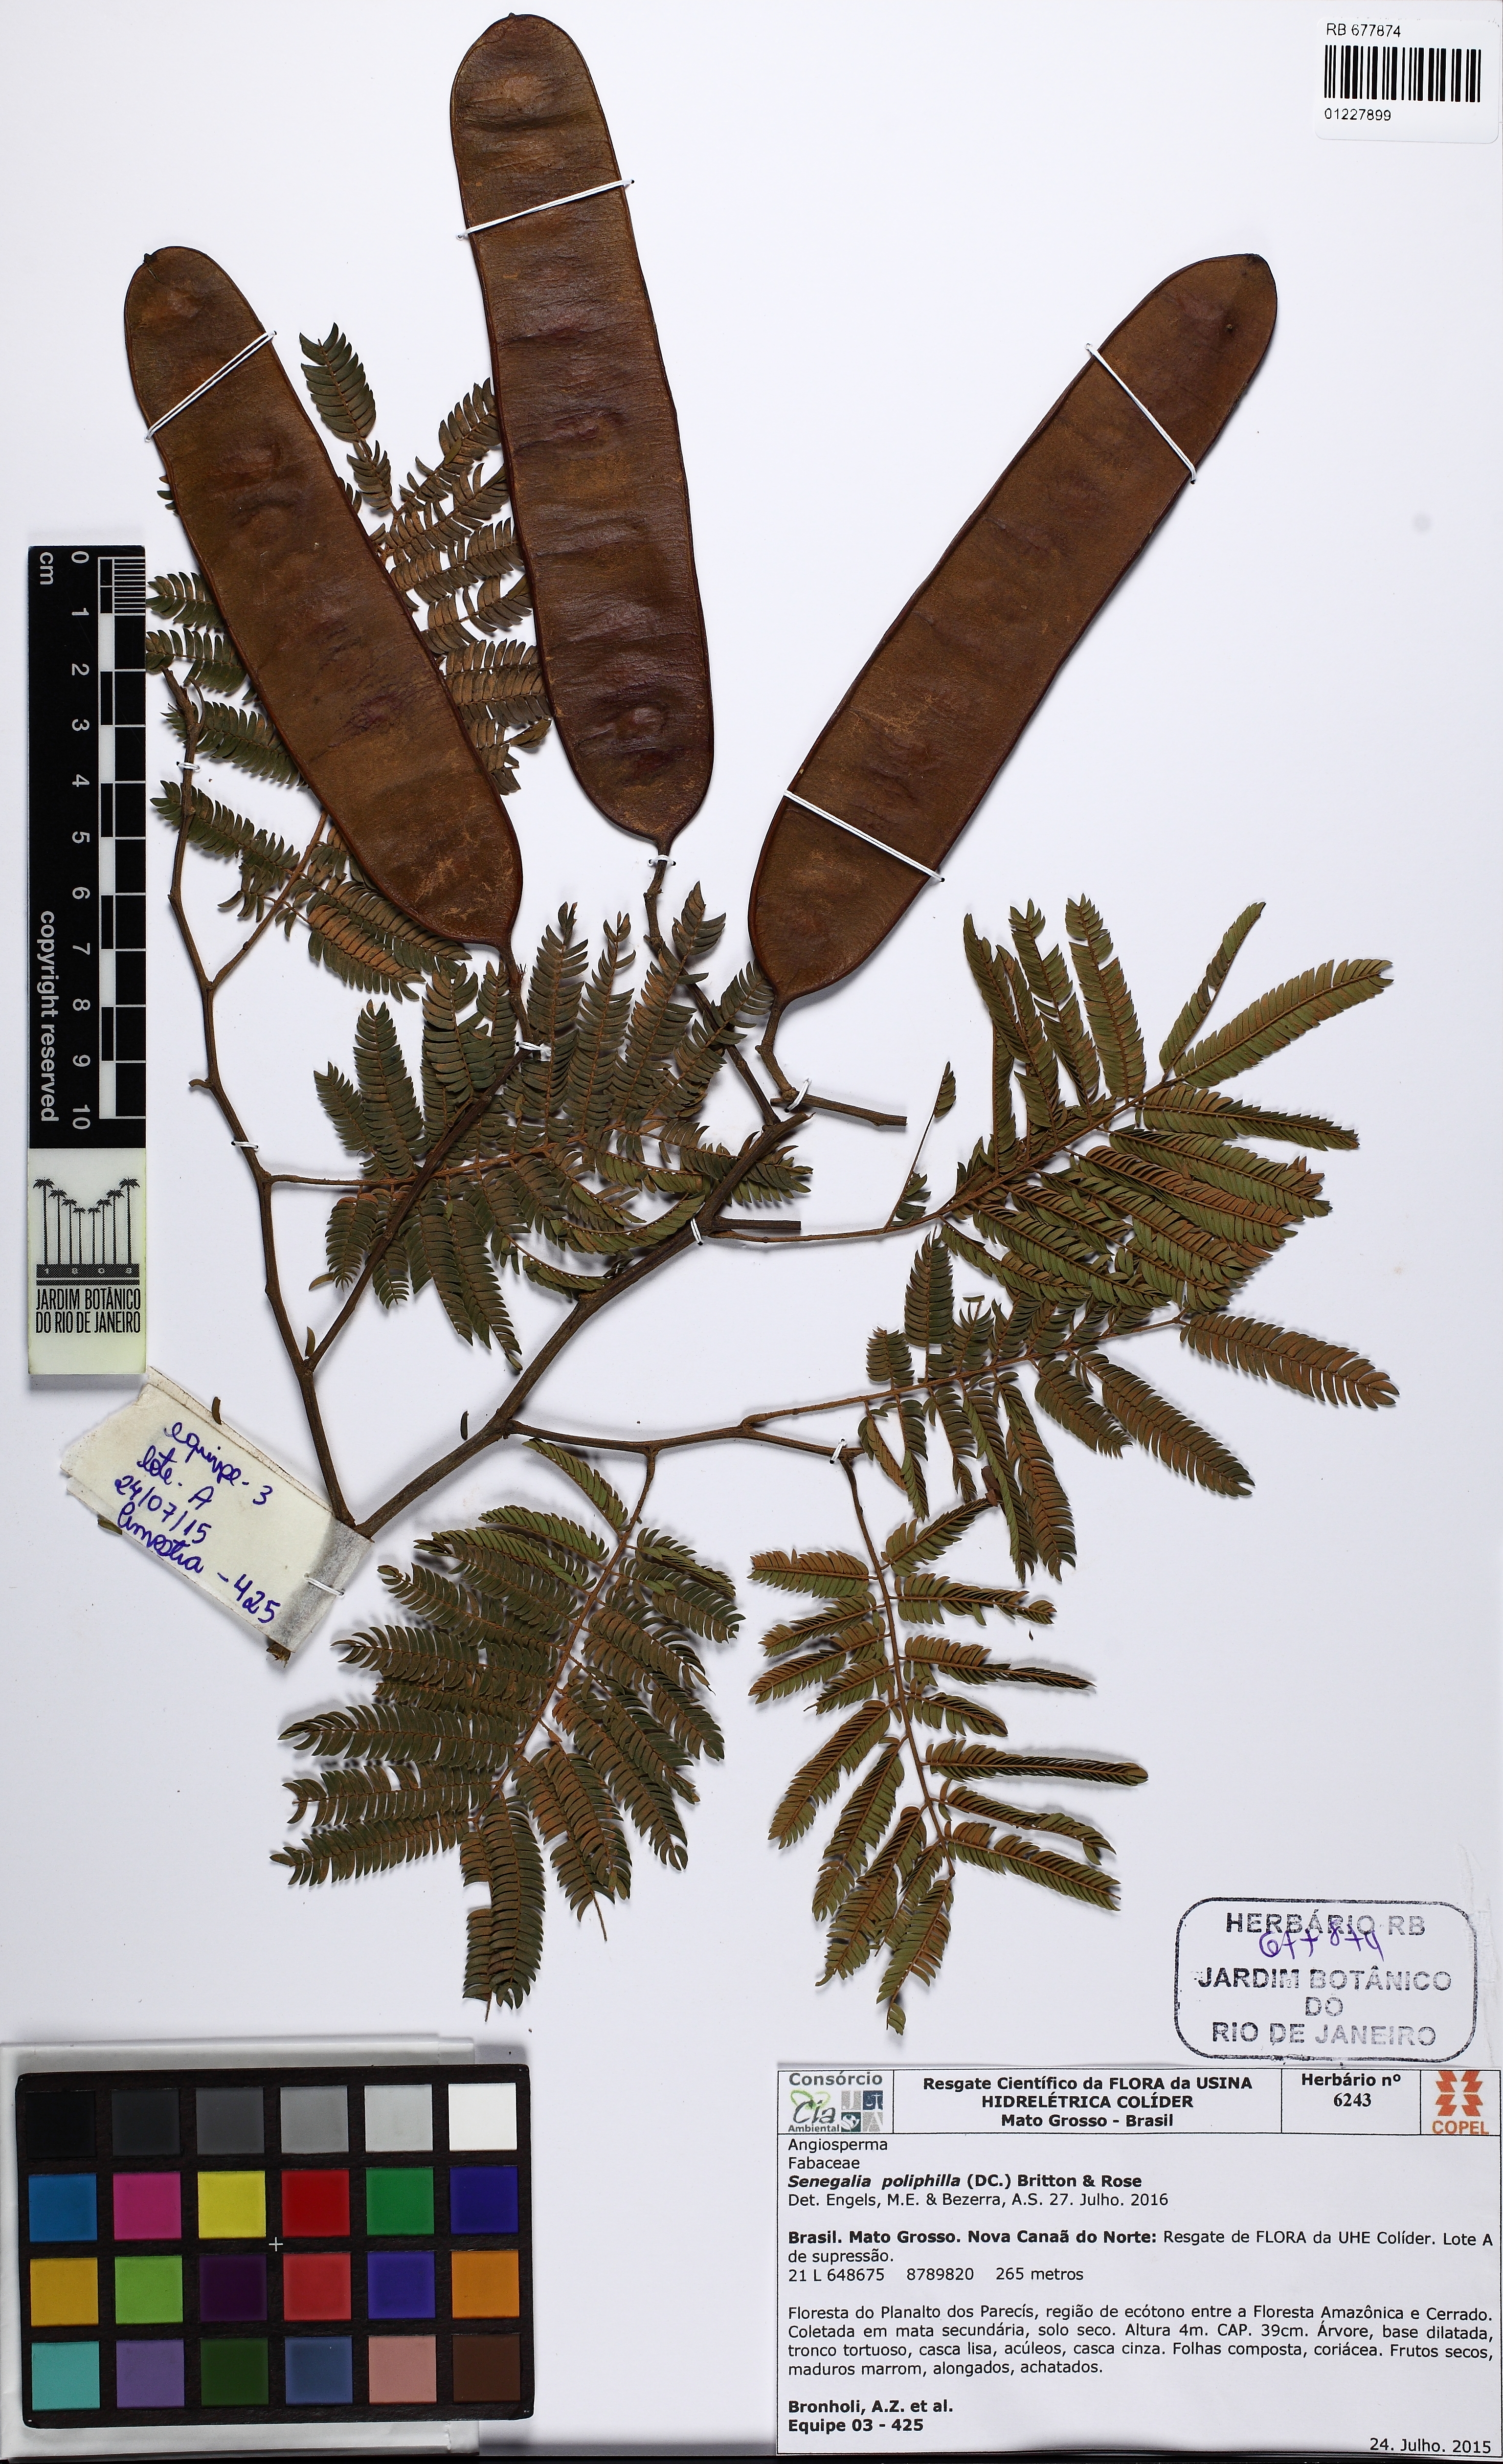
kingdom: Plantae
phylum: Tracheophyta
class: Magnoliopsida
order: Fabales
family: Fabaceae
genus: Senegalia
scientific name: Senegalia polyphylla
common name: White-tamarind
